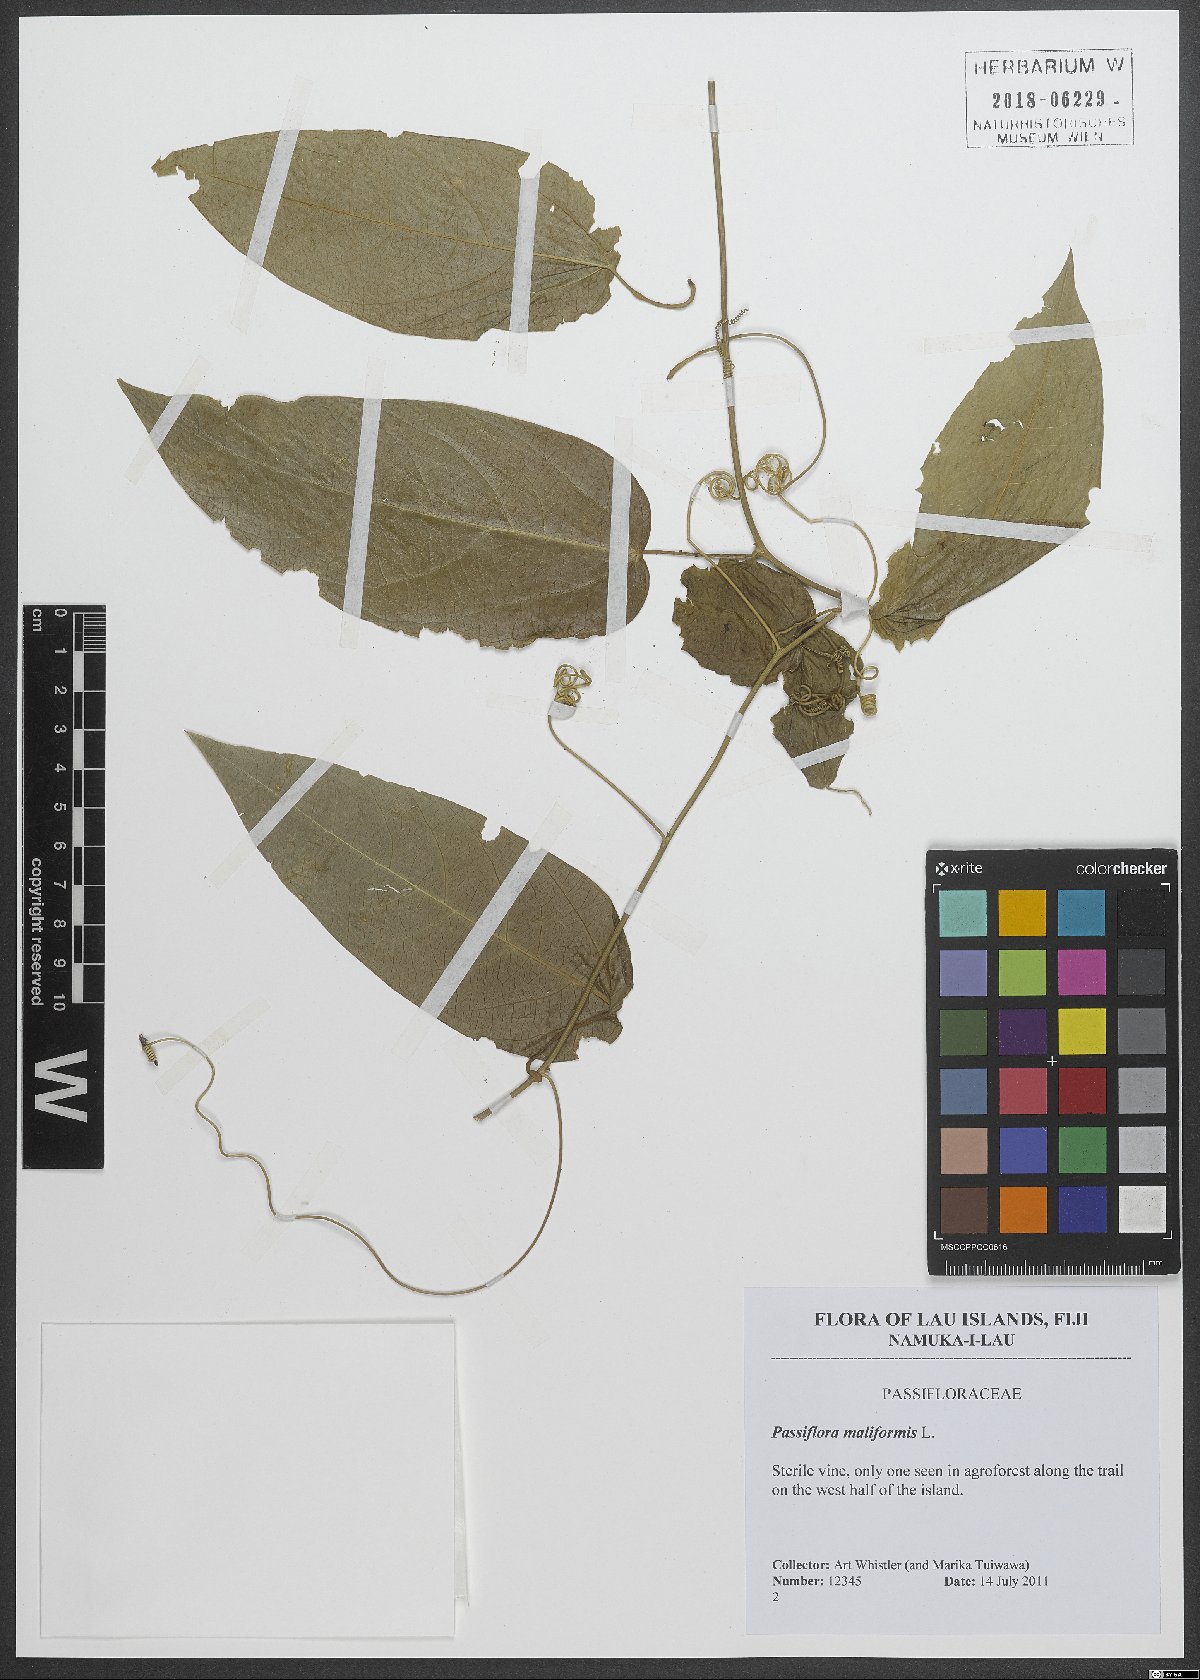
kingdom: Plantae
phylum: Tracheophyta
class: Magnoliopsida
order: Malpighiales
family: Passifloraceae
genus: Passiflora
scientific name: Passiflora maliformis
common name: Conch apple
